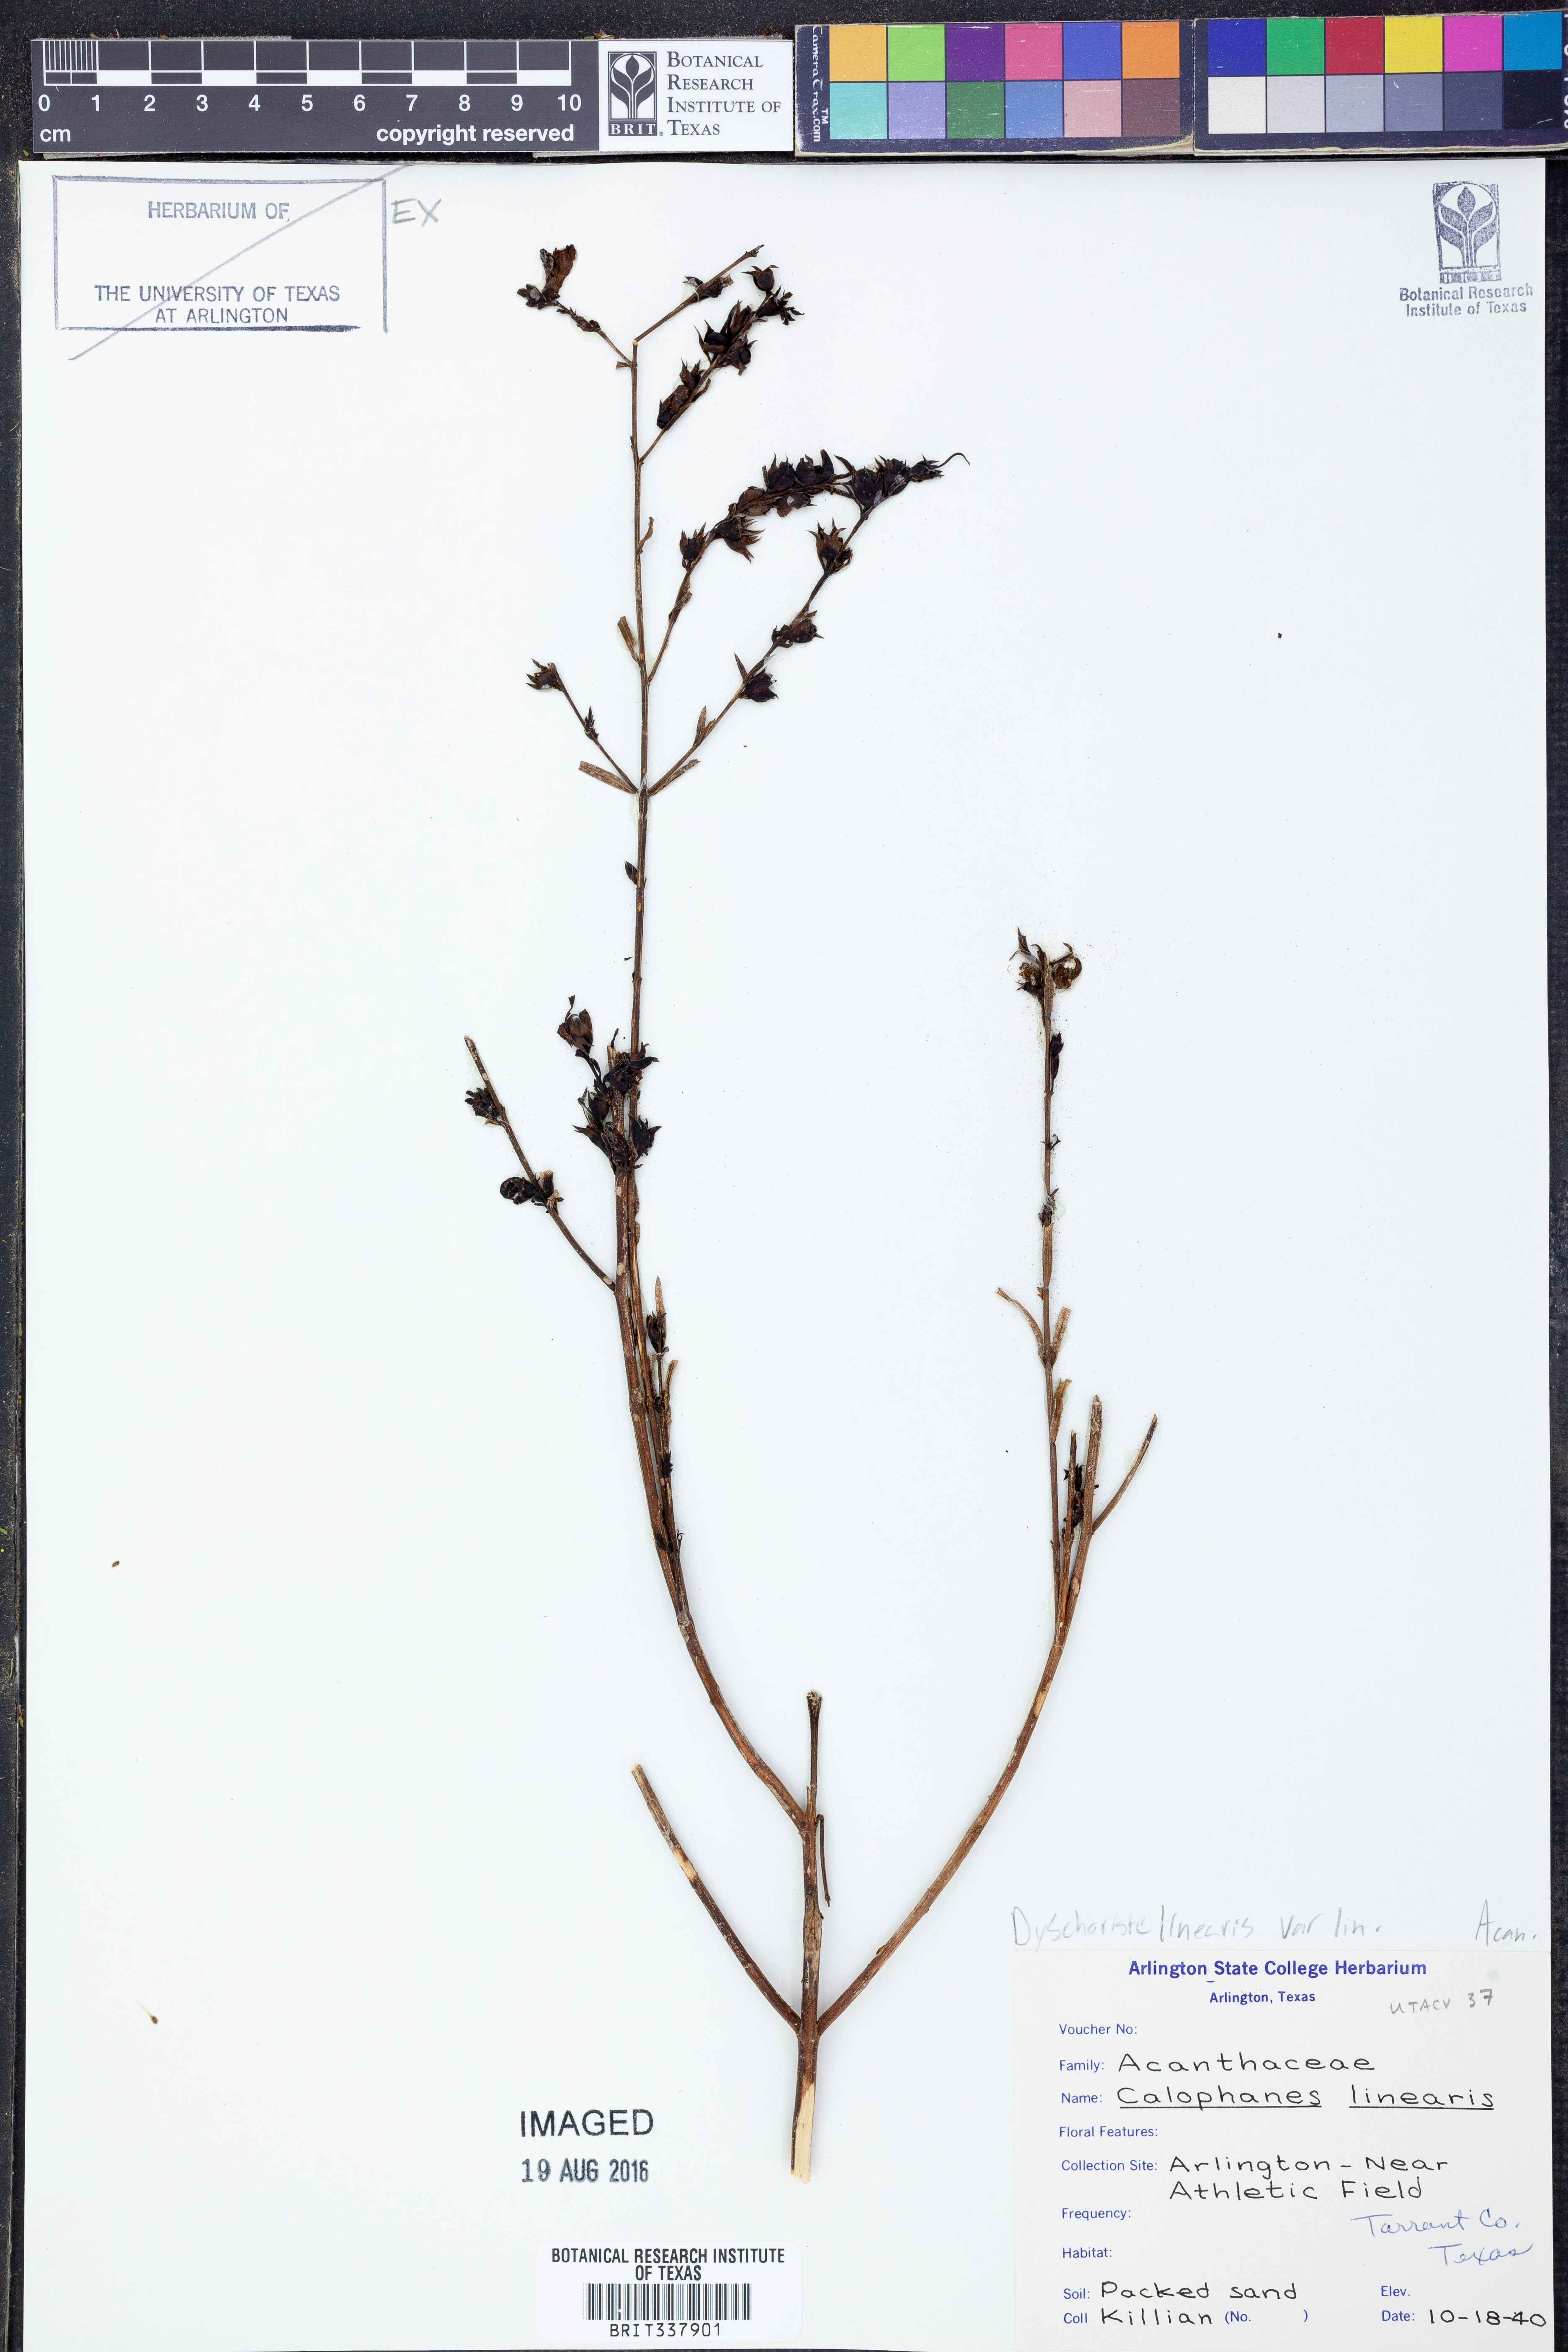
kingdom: Plantae
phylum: Tracheophyta
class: Magnoliopsida
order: Lamiales
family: Acanthaceae
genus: Dyschoriste
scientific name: Dyschoriste linearis
